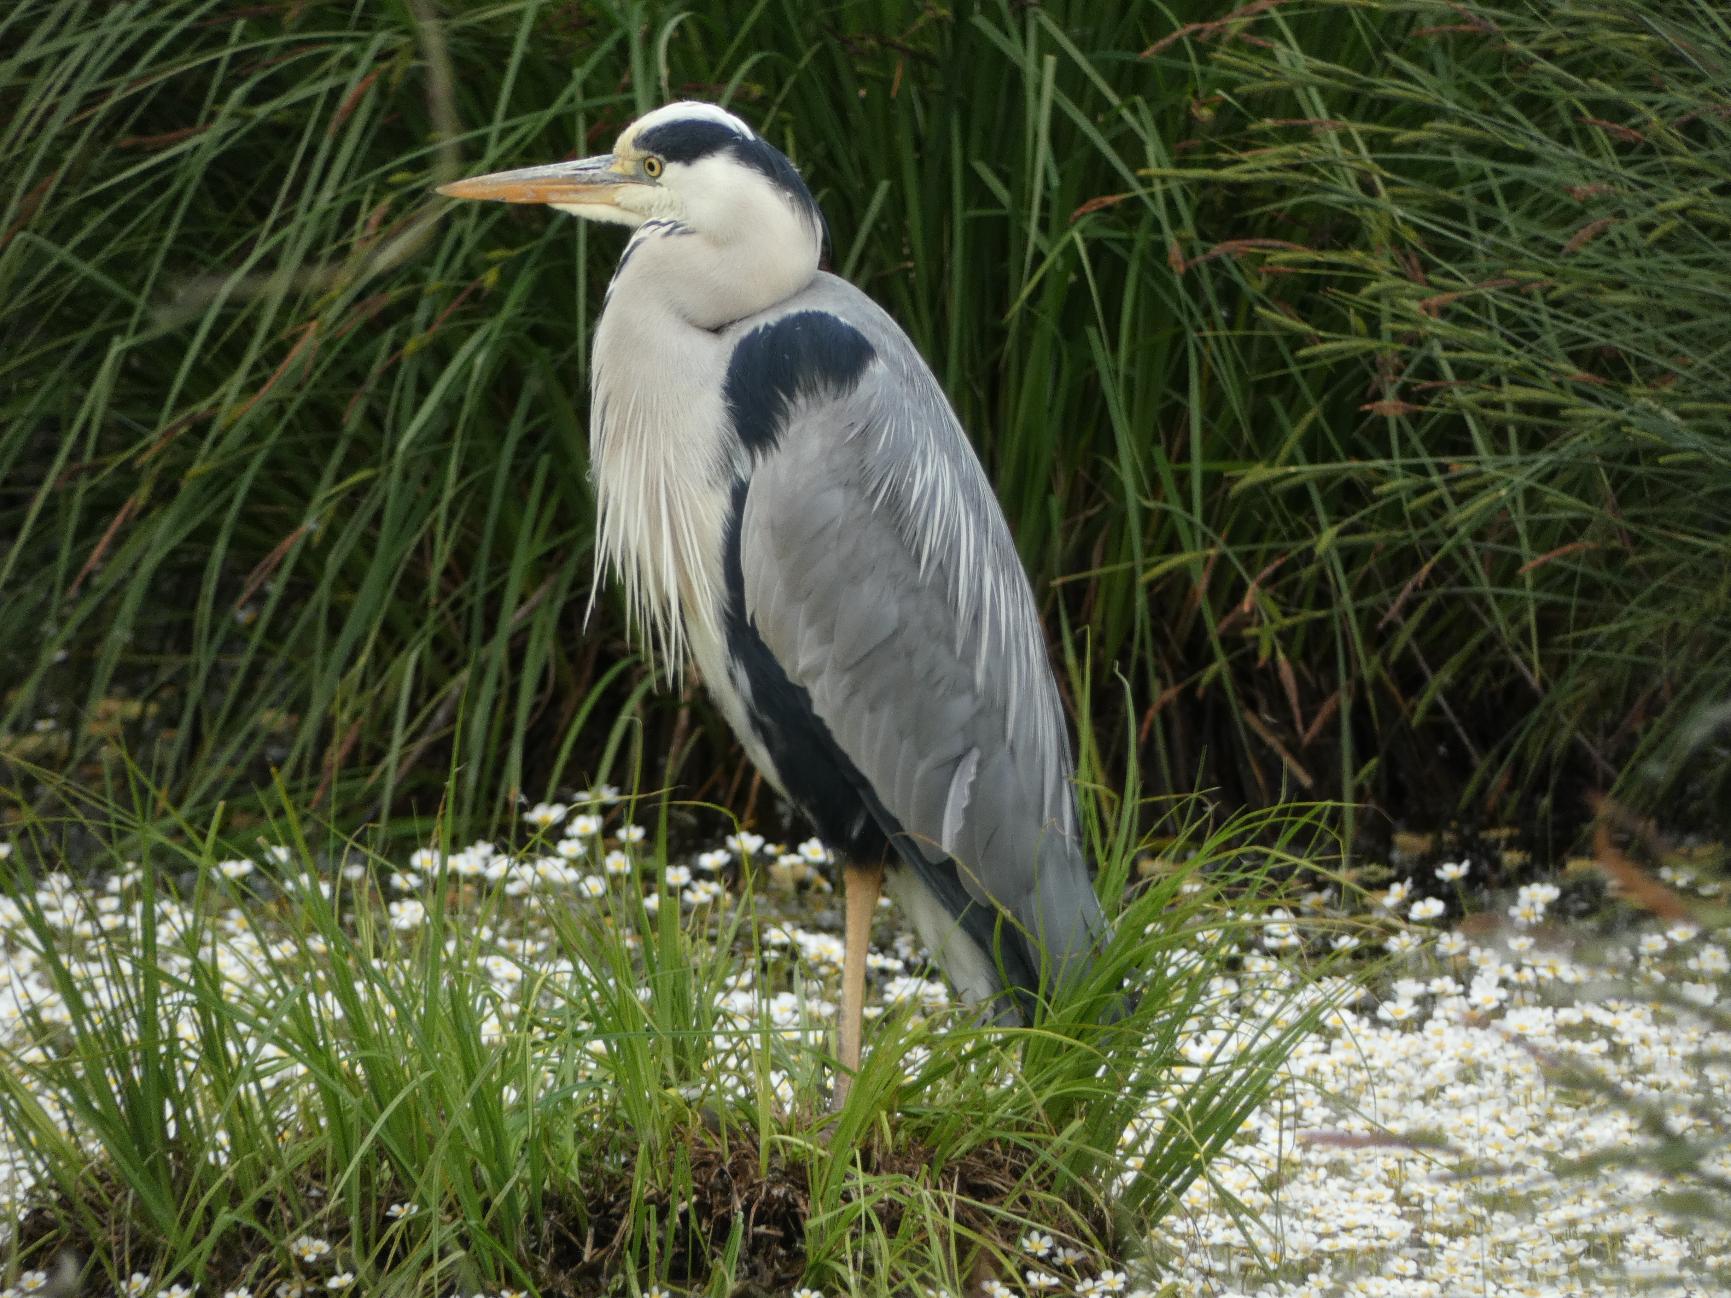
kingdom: Animalia
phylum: Chordata
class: Aves
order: Pelecaniformes
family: Ardeidae
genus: Ardea
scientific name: Ardea cinerea
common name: Fiskehejre
